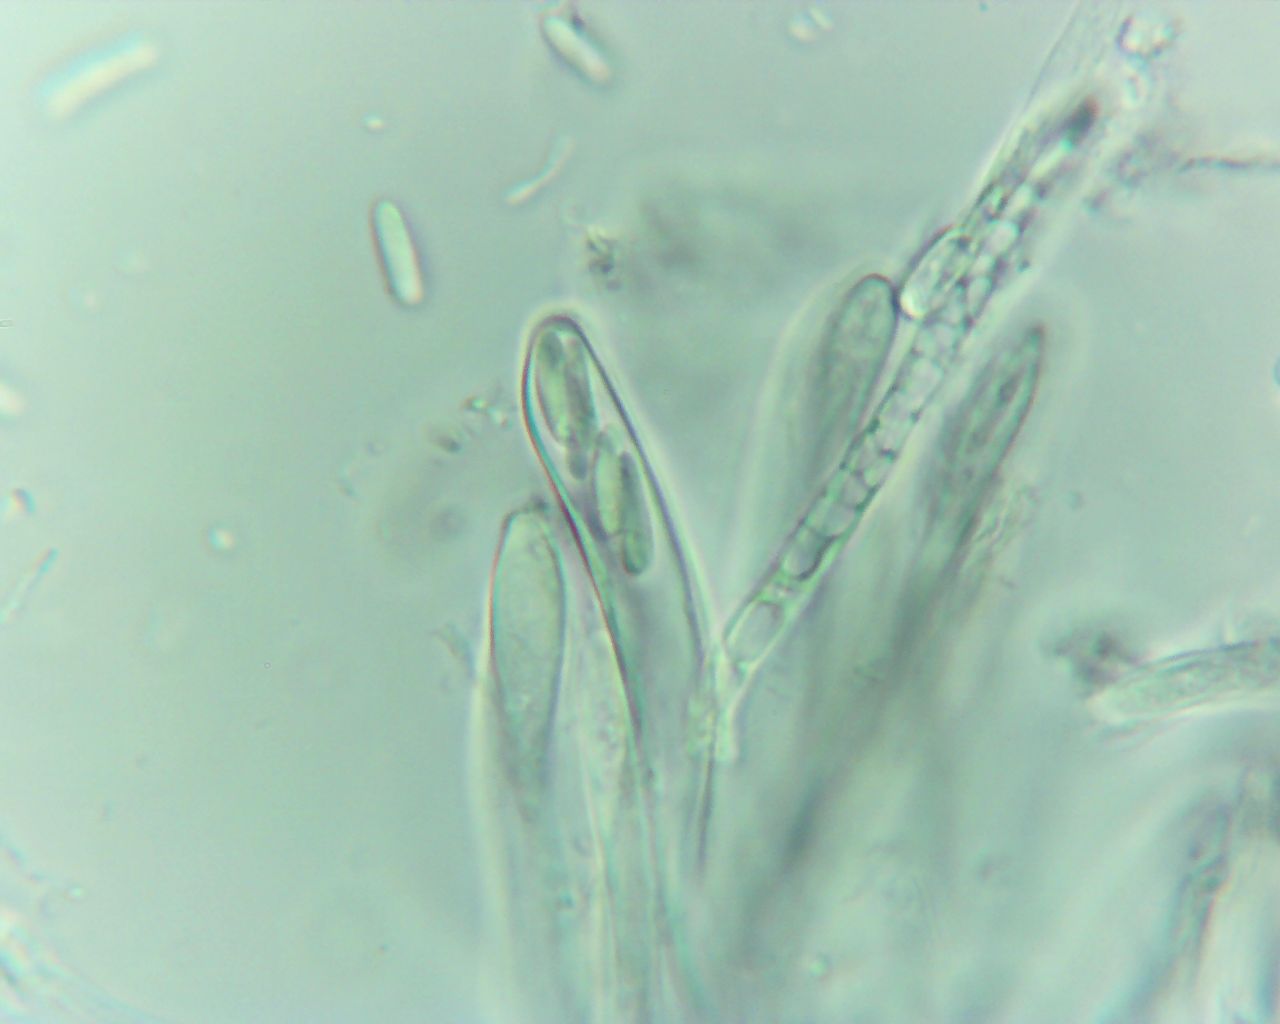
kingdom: Fungi
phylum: Ascomycota
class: Leotiomycetes
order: Helotiales
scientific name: Helotiales
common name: stilkskiveordenen
